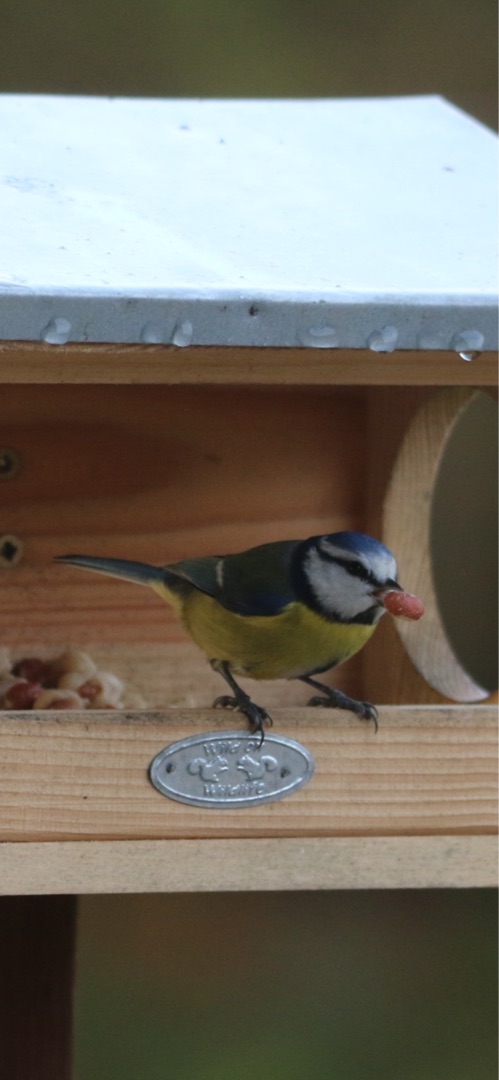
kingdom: Animalia
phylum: Chordata
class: Aves
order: Passeriformes
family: Paridae
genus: Cyanistes
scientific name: Cyanistes caeruleus
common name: Blåmejse
